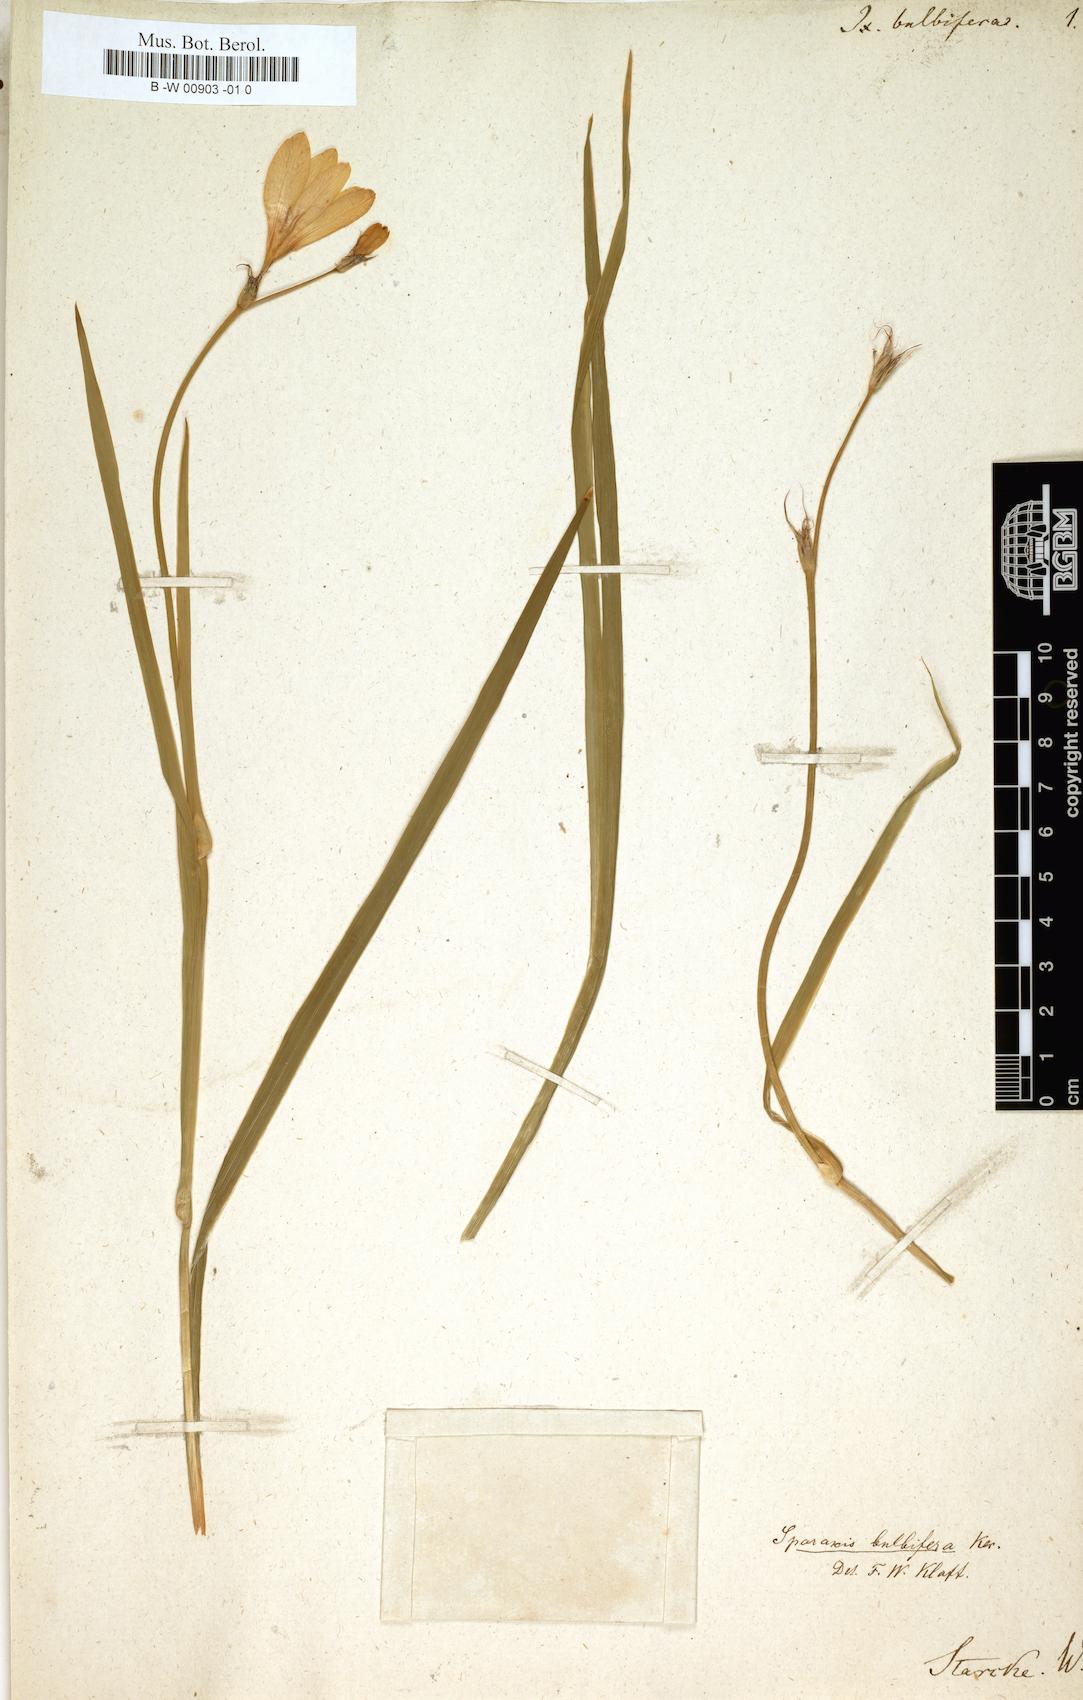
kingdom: Plantae
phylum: Tracheophyta
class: Liliopsida
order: Asparagales
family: Iridaceae
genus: Ixia
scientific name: Ixia bulbifera
